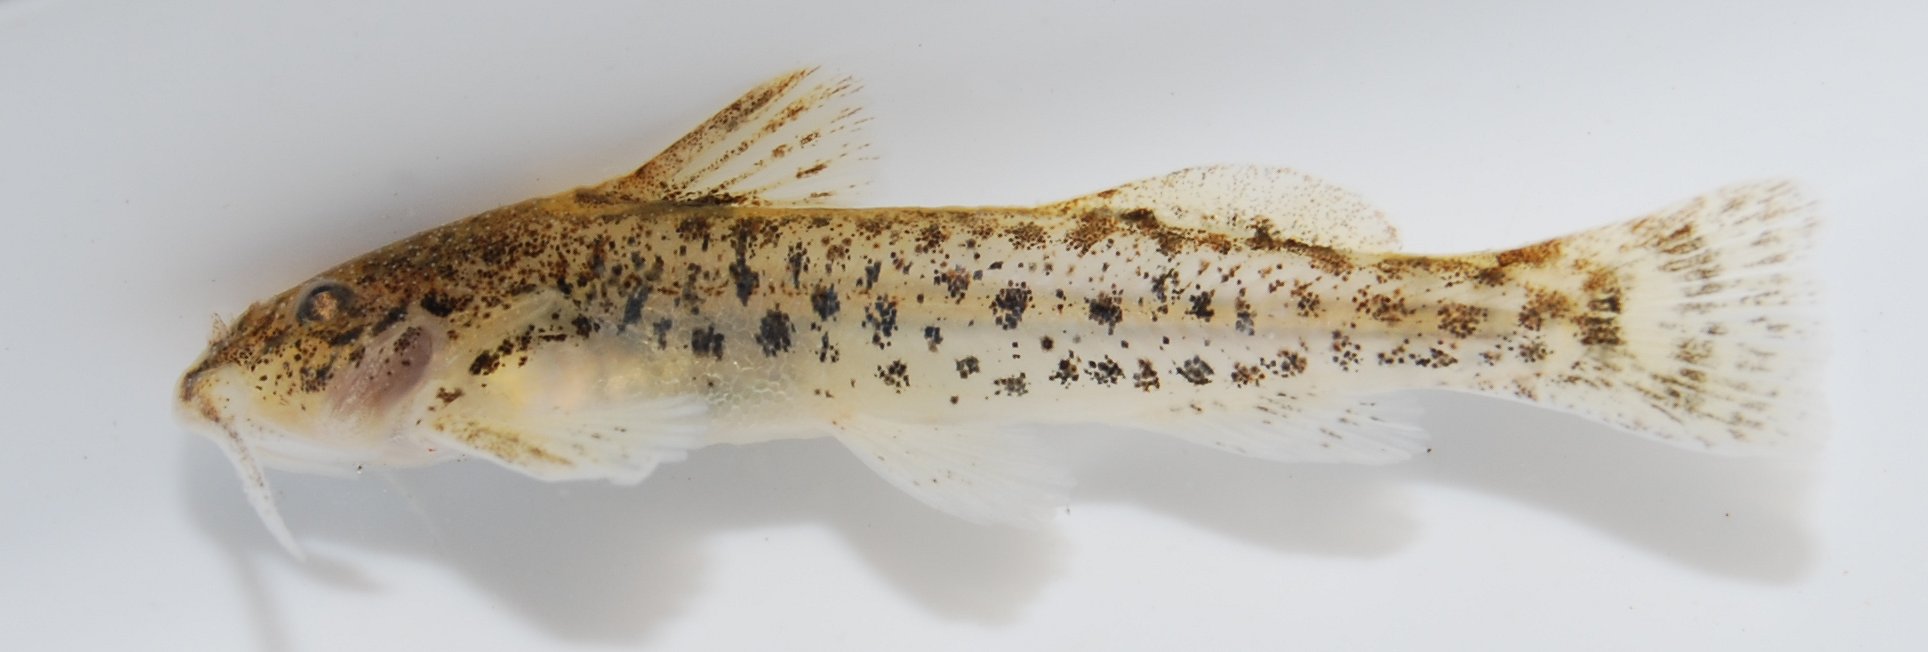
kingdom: Animalia
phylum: Chordata
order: Siluriformes
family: Amphiliidae
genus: Zaireichthys
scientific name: Zaireichthys
